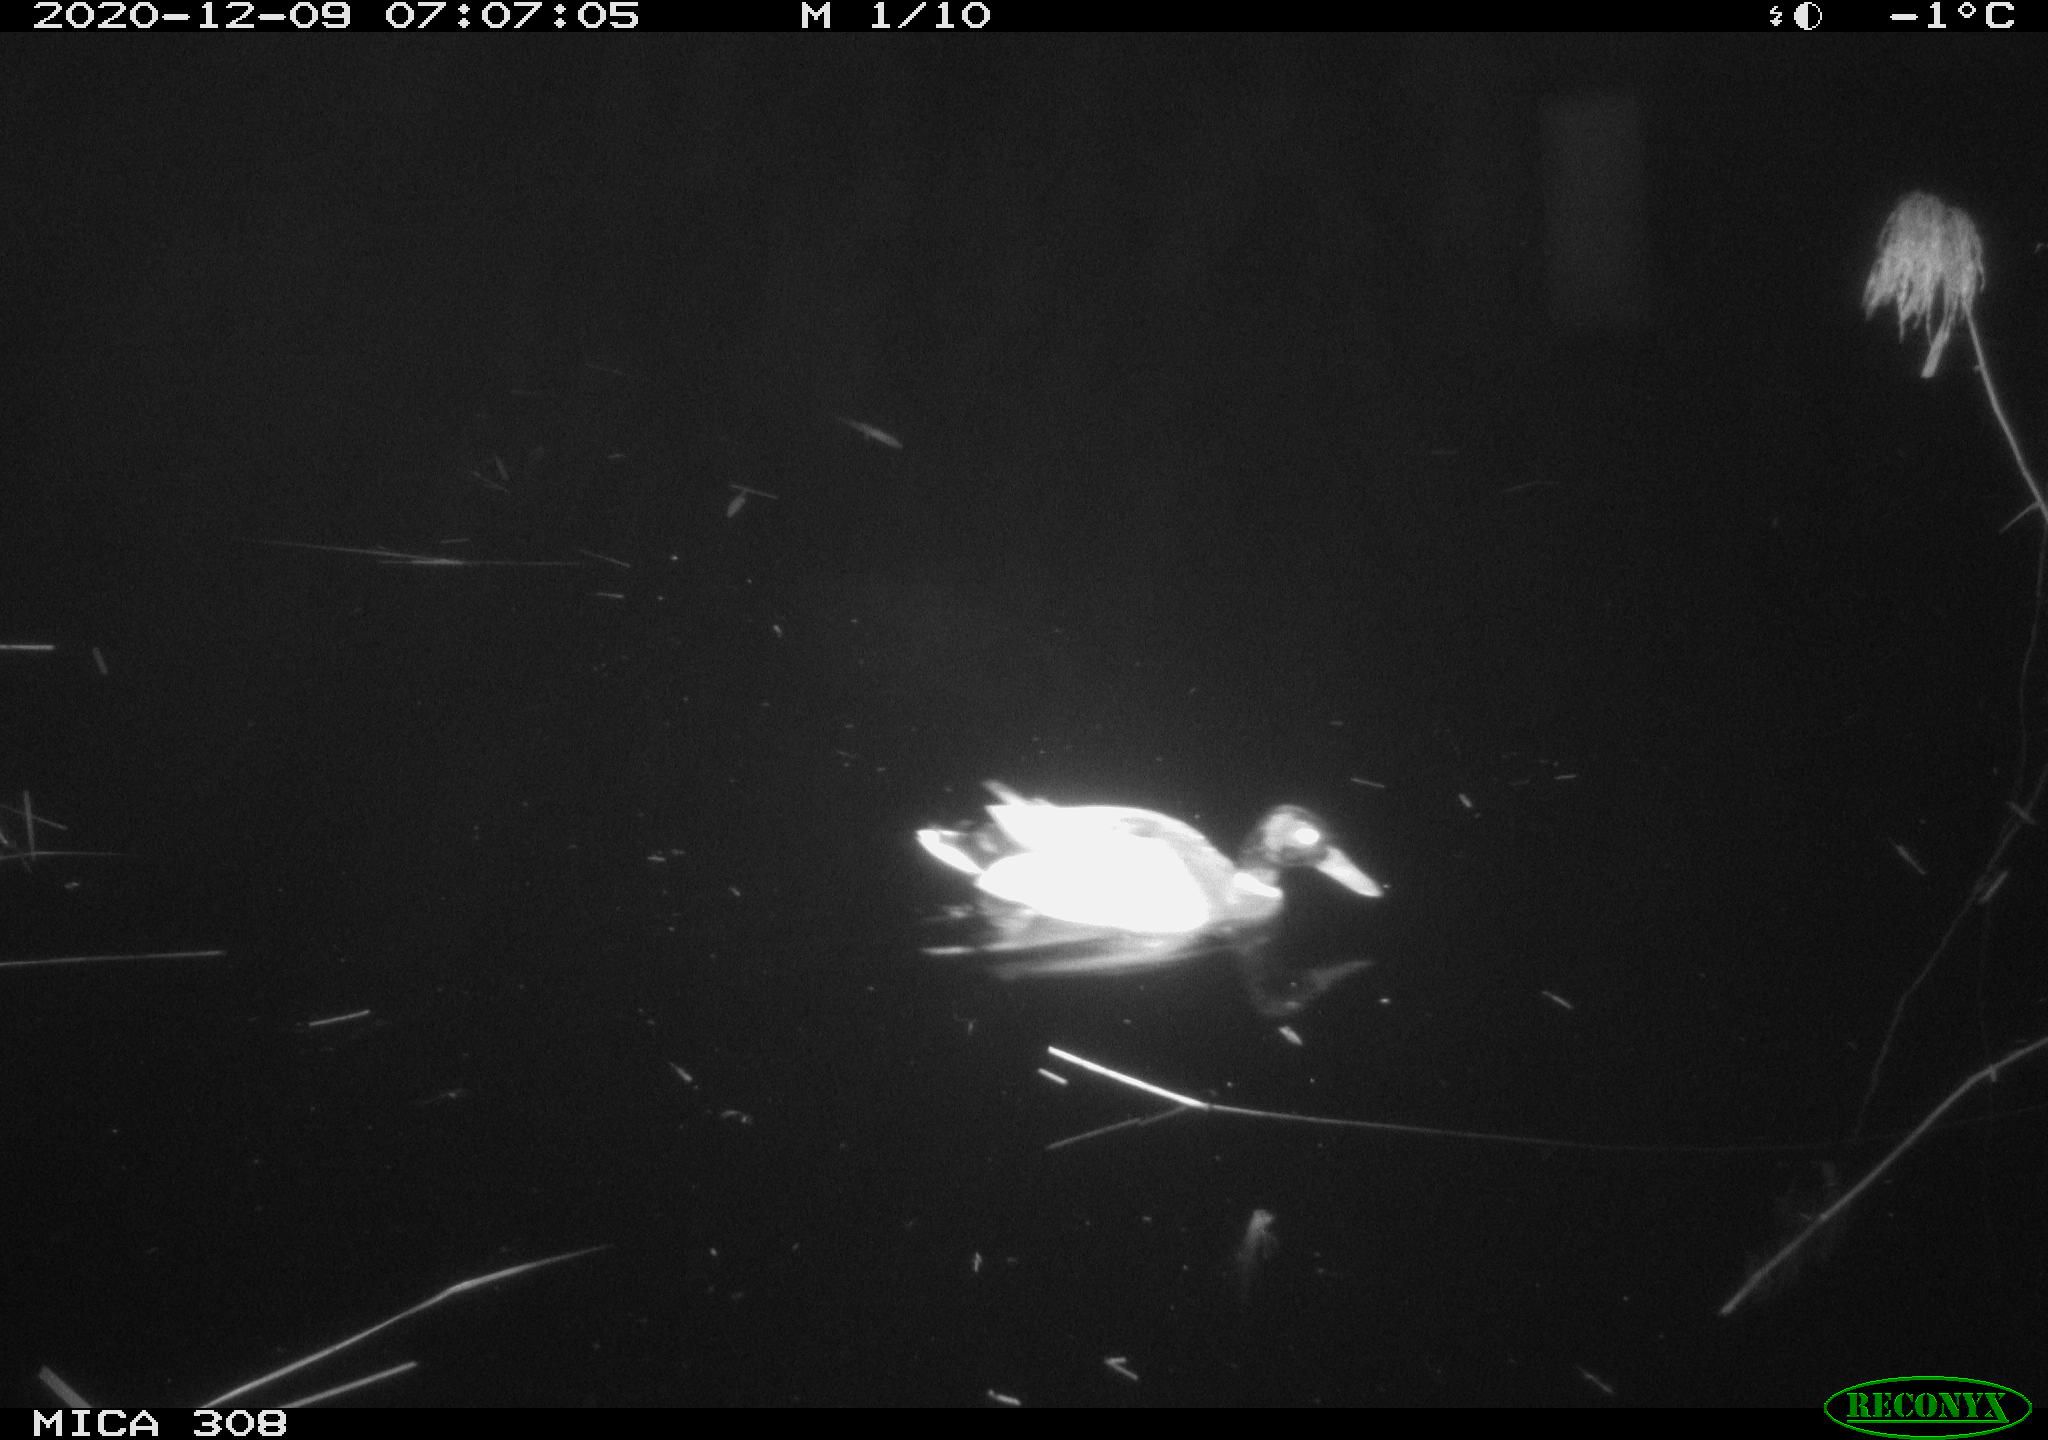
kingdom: Animalia
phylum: Chordata
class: Aves
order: Anseriformes
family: Anatidae
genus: Anas
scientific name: Anas platyrhynchos
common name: Mallard
